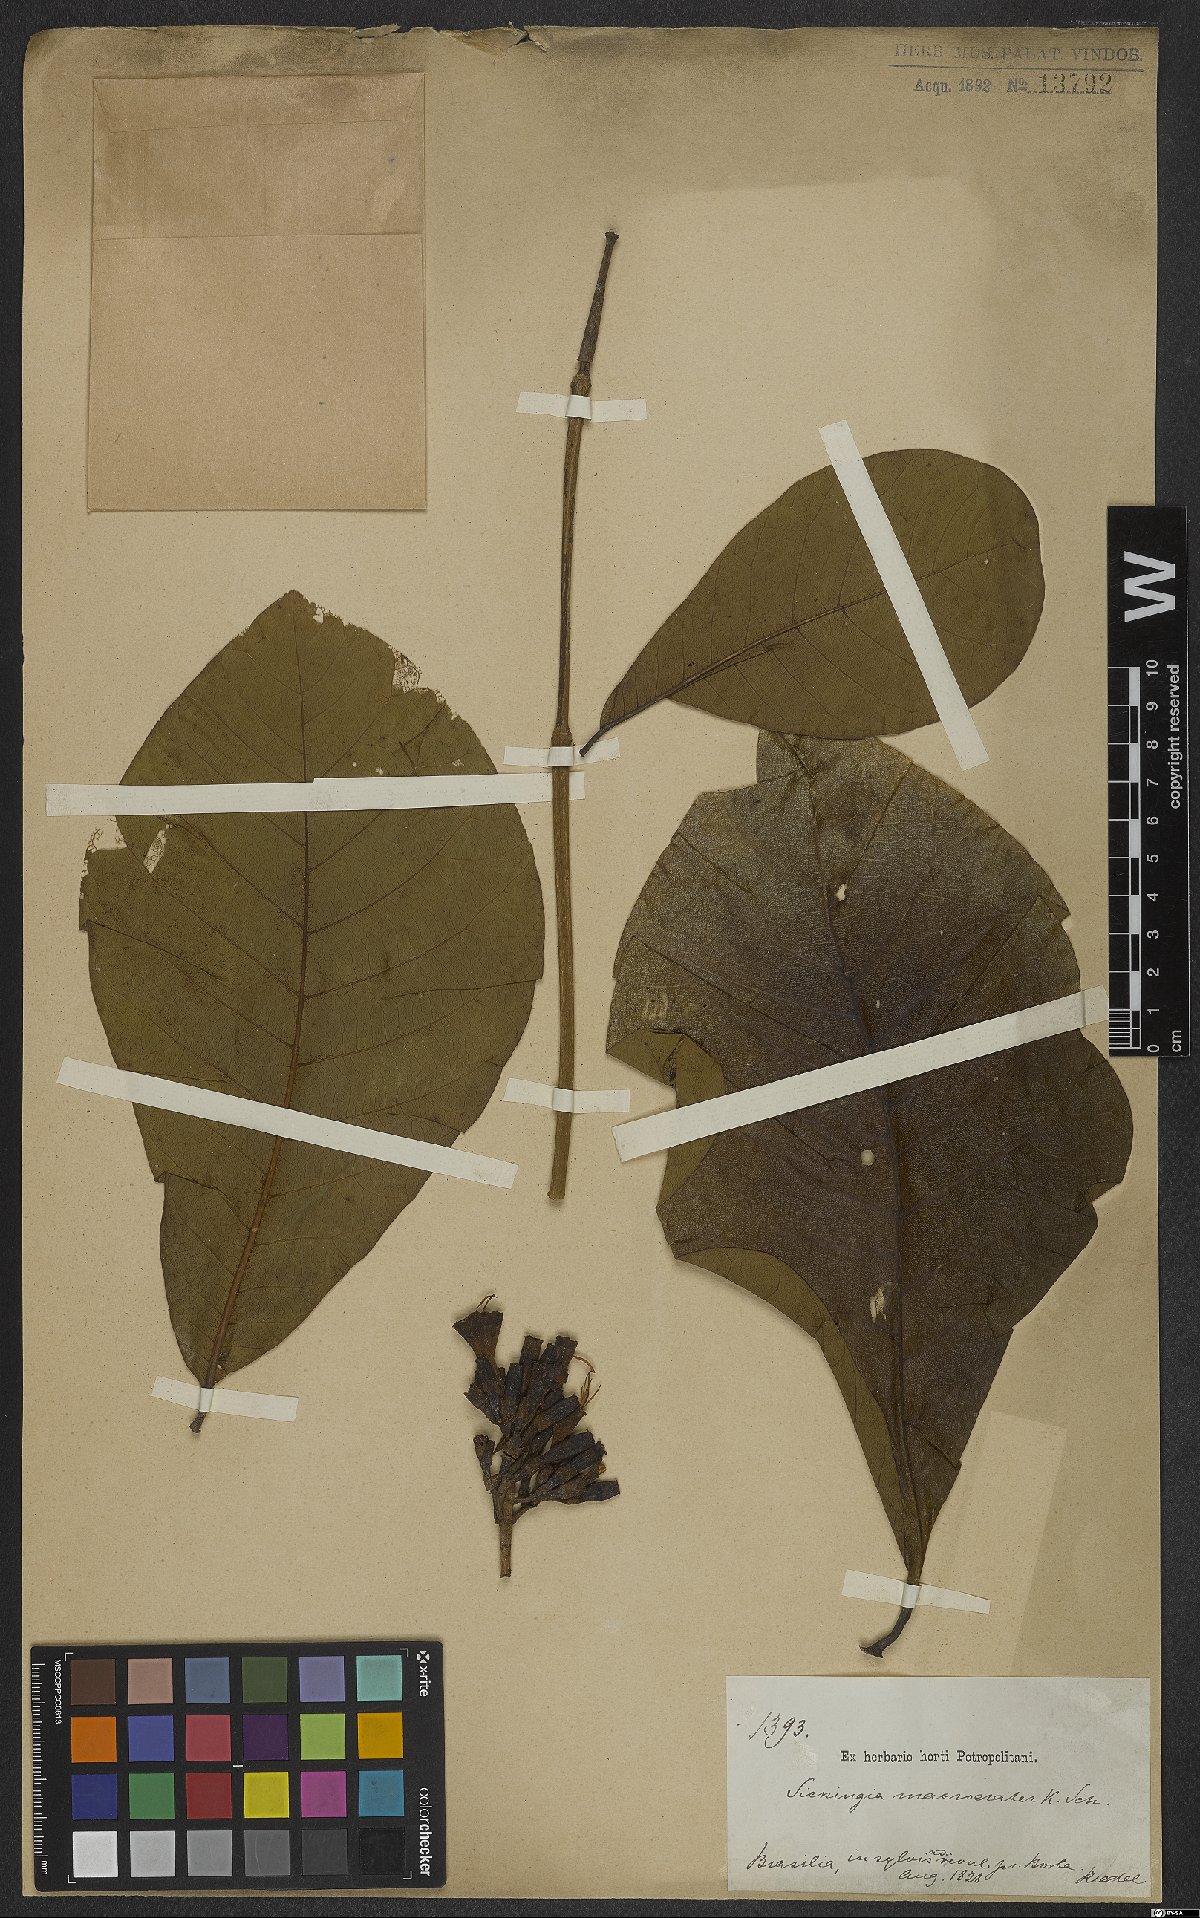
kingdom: Plantae
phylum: Tracheophyta
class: Magnoliopsida
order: Gentianales
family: Rubiaceae
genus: Simira
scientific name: Simira macrocrater
